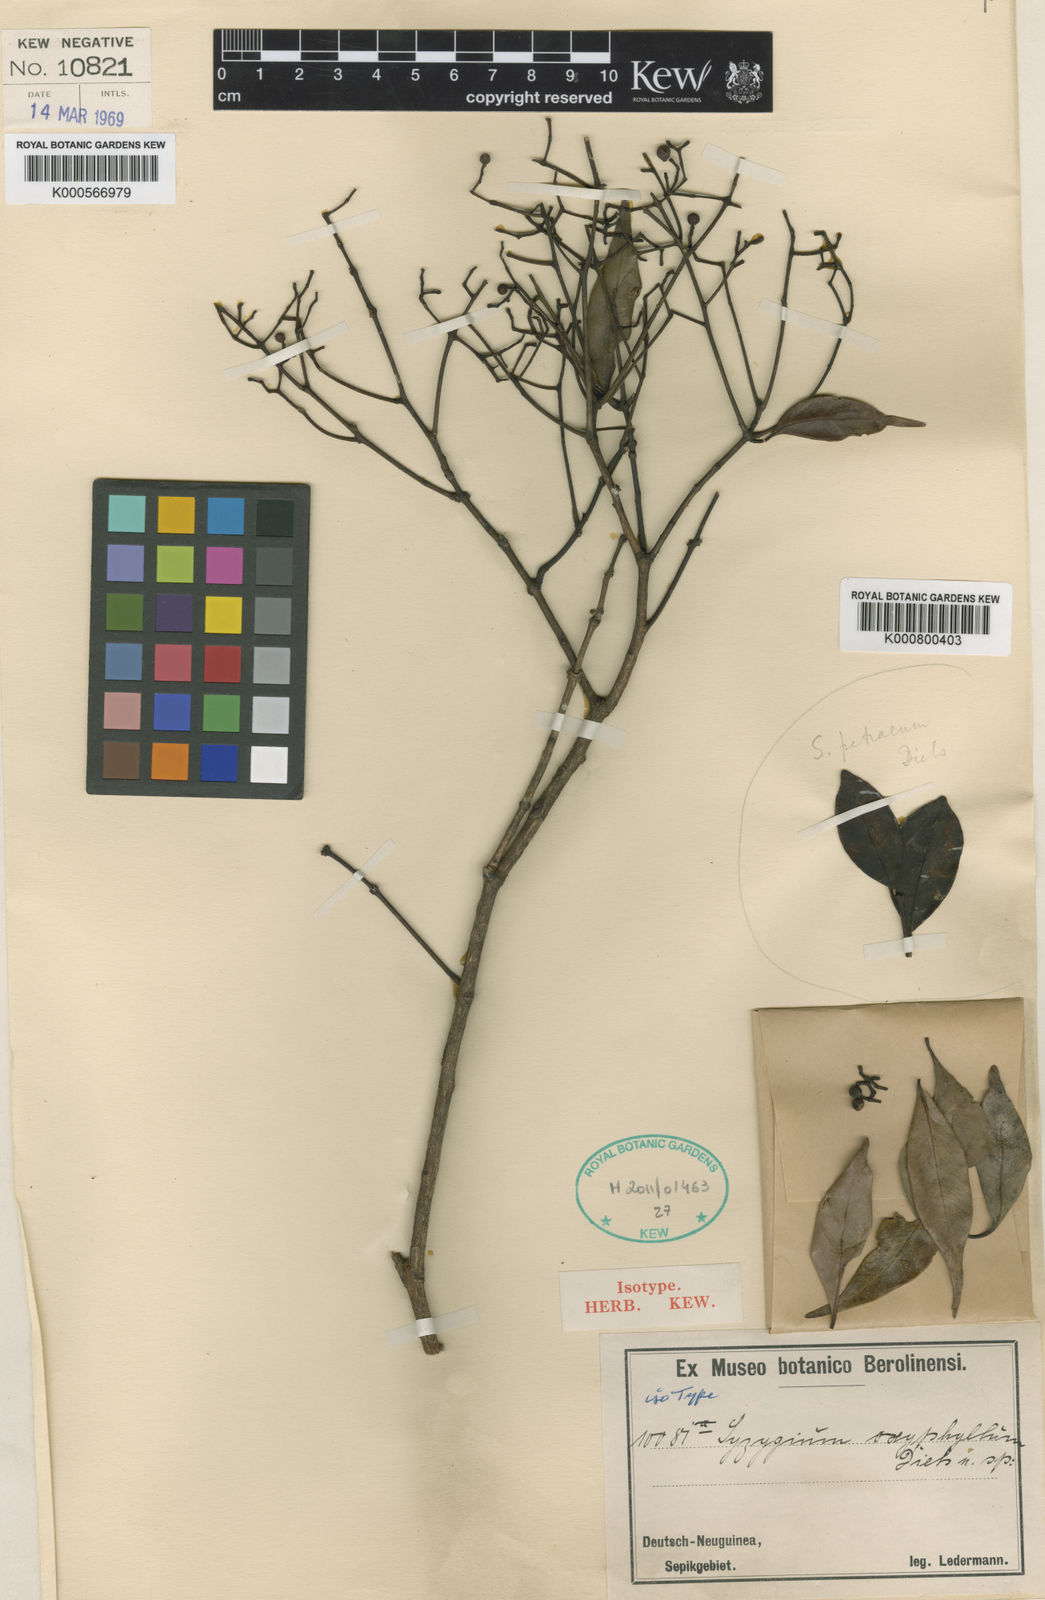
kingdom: Plantae
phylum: Tracheophyta
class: Magnoliopsida
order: Myrtales
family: Myrtaceae
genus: Syzygium
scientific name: Syzygium oxyphyllum
